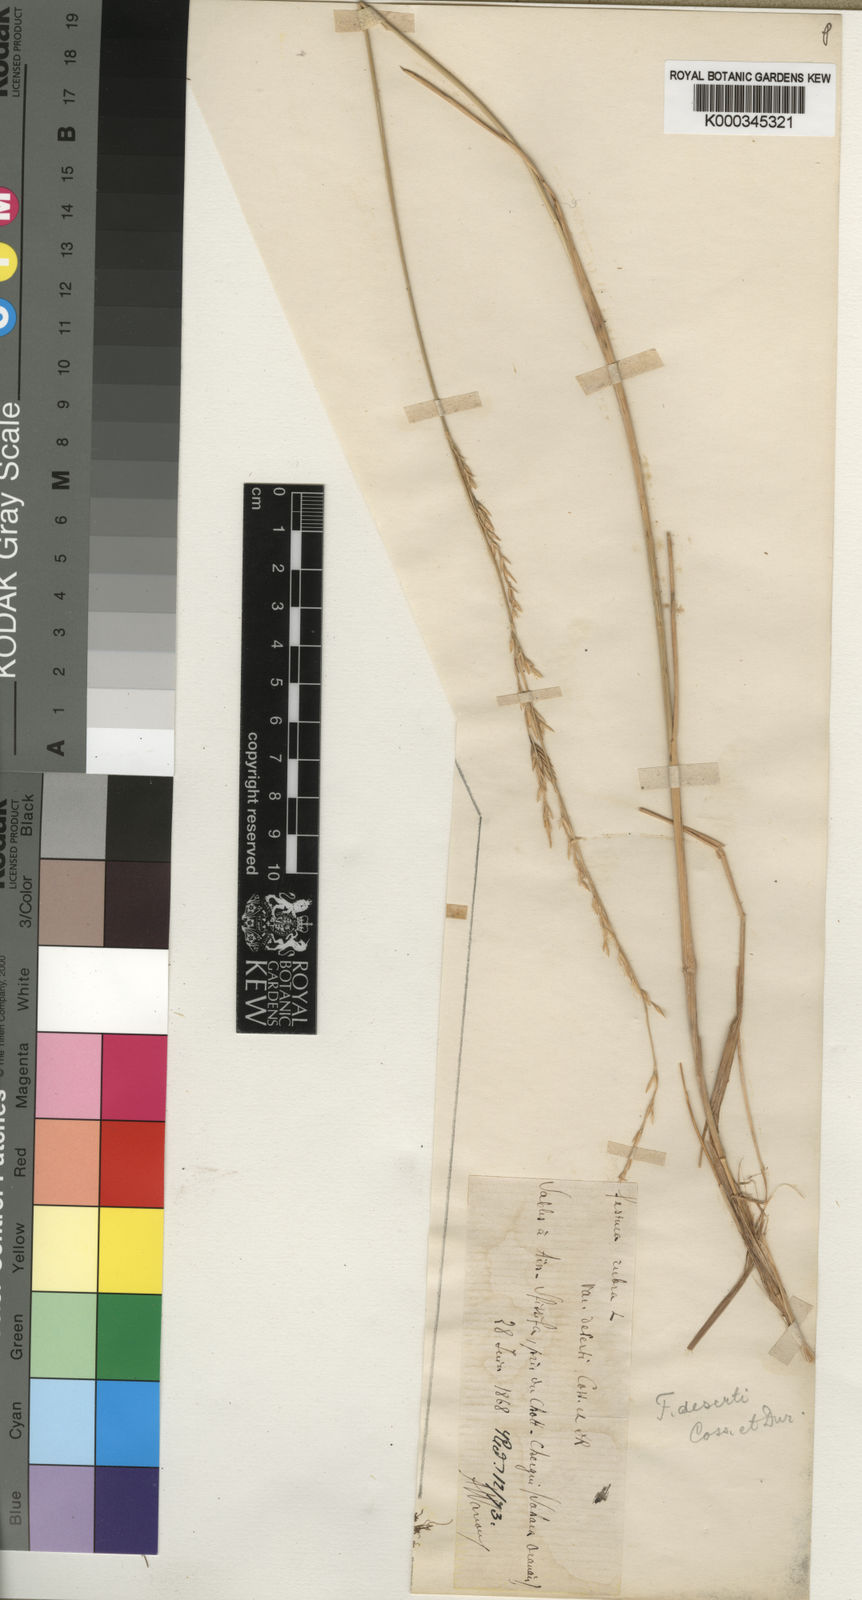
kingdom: Plantae
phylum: Tracheophyta
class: Liliopsida
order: Poales
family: Poaceae
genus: Festuca
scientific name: Festuca deserti
